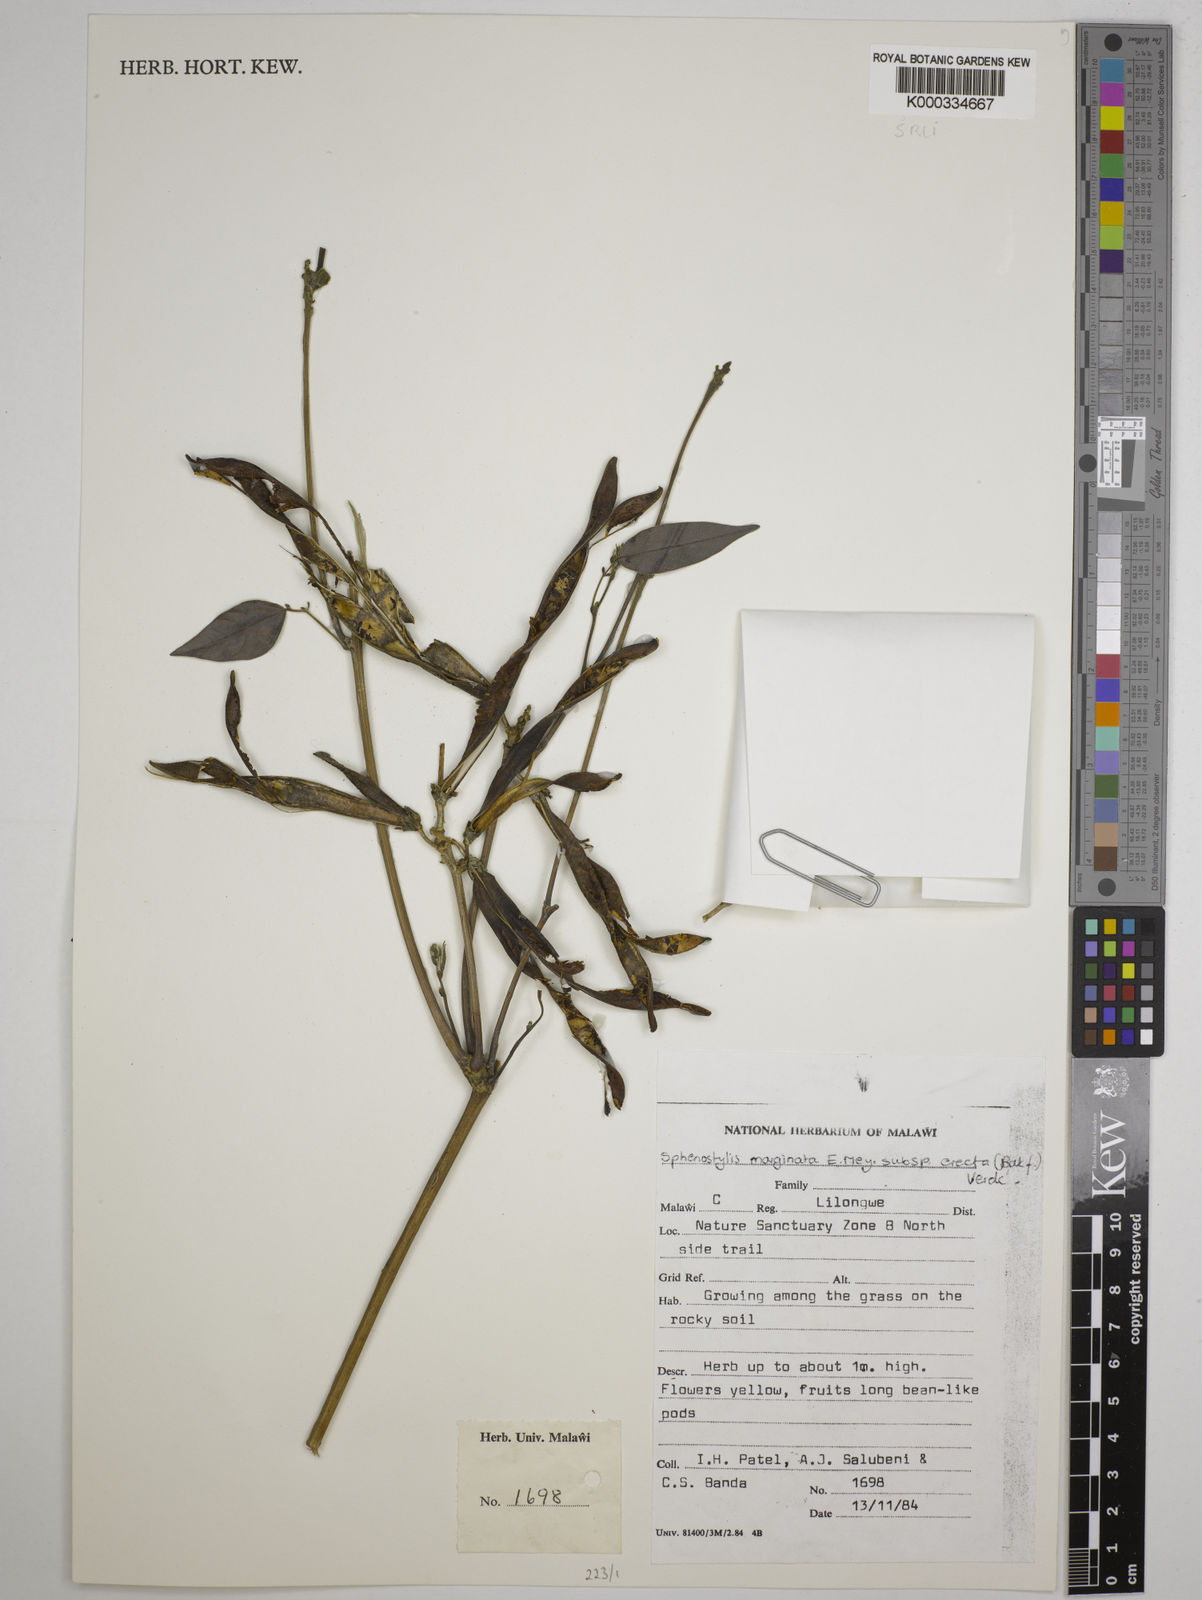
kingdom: Plantae
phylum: Tracheophyta
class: Magnoliopsida
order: Fabales
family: Fabaceae
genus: Sphenostylis
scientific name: Sphenostylis erecta
